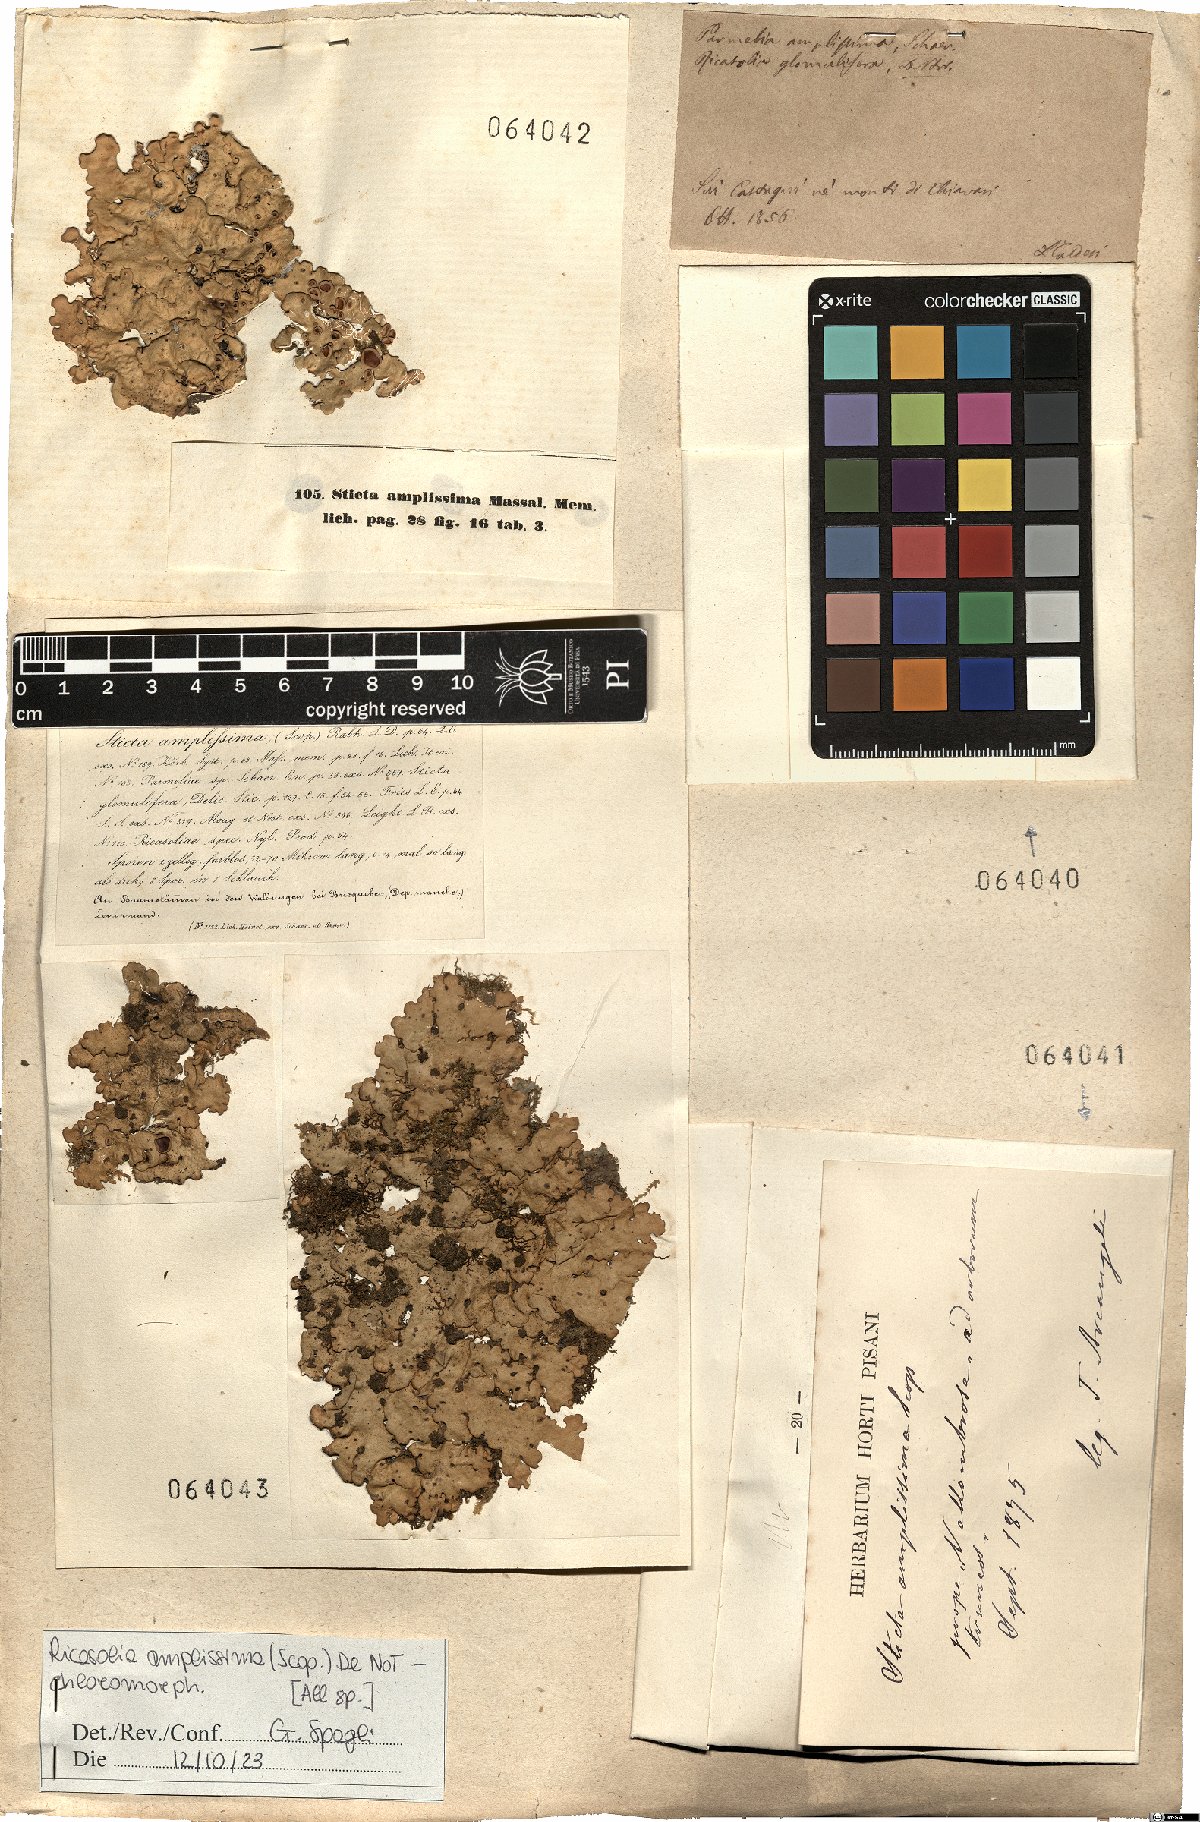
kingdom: Fungi
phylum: Ascomycota
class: Lecanoromycetes
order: Peltigerales
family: Lobariaceae
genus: Ricasolia
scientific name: Ricasolia amplissima
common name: Giant candlewax lichen
